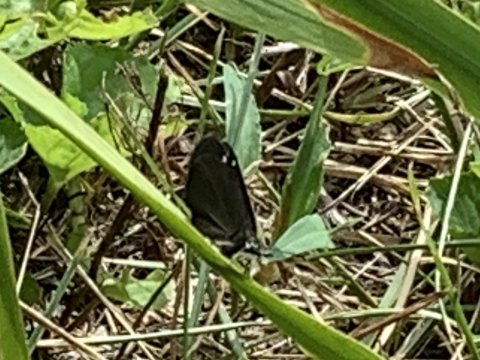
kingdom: Animalia
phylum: Arthropoda
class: Insecta
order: Lepidoptera
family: Hesperiidae
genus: Pholisora
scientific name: Pholisora catullus
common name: Common Sootywing
